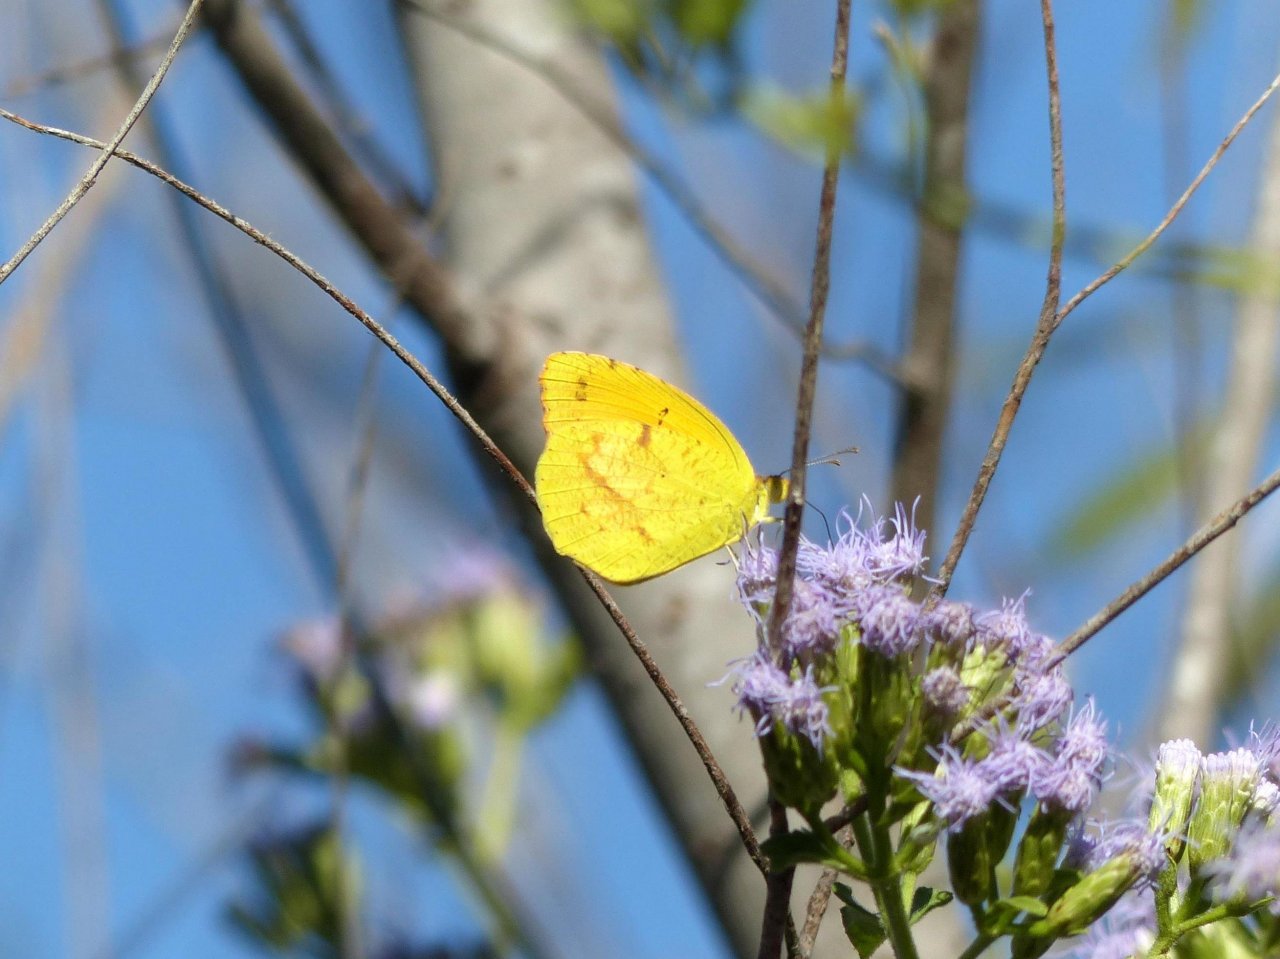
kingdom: Animalia
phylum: Arthropoda
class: Insecta
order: Lepidoptera
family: Pieridae
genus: Abaeis
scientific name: Abaeis nicippe
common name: Sleepy Orange
